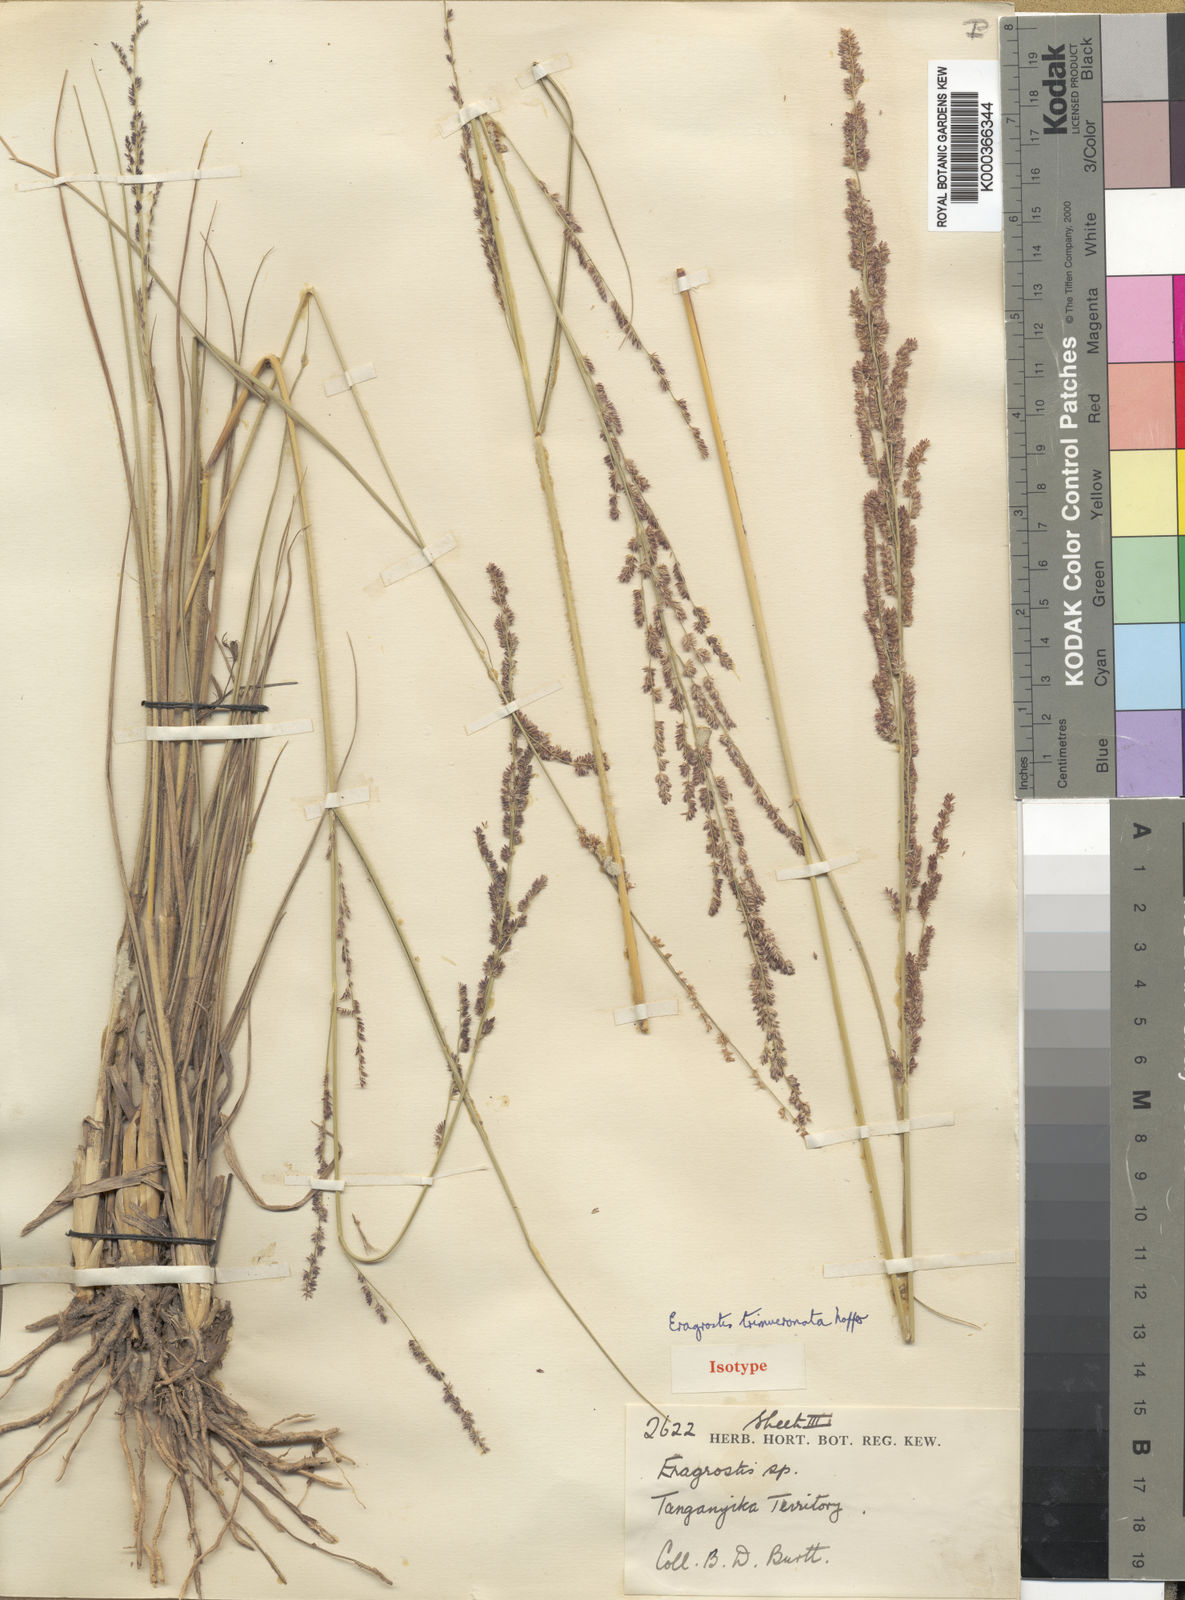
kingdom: Plantae
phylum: Tracheophyta
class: Liliopsida
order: Poales
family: Poaceae
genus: Eragrostis
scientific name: Eragrostis trimucronata
